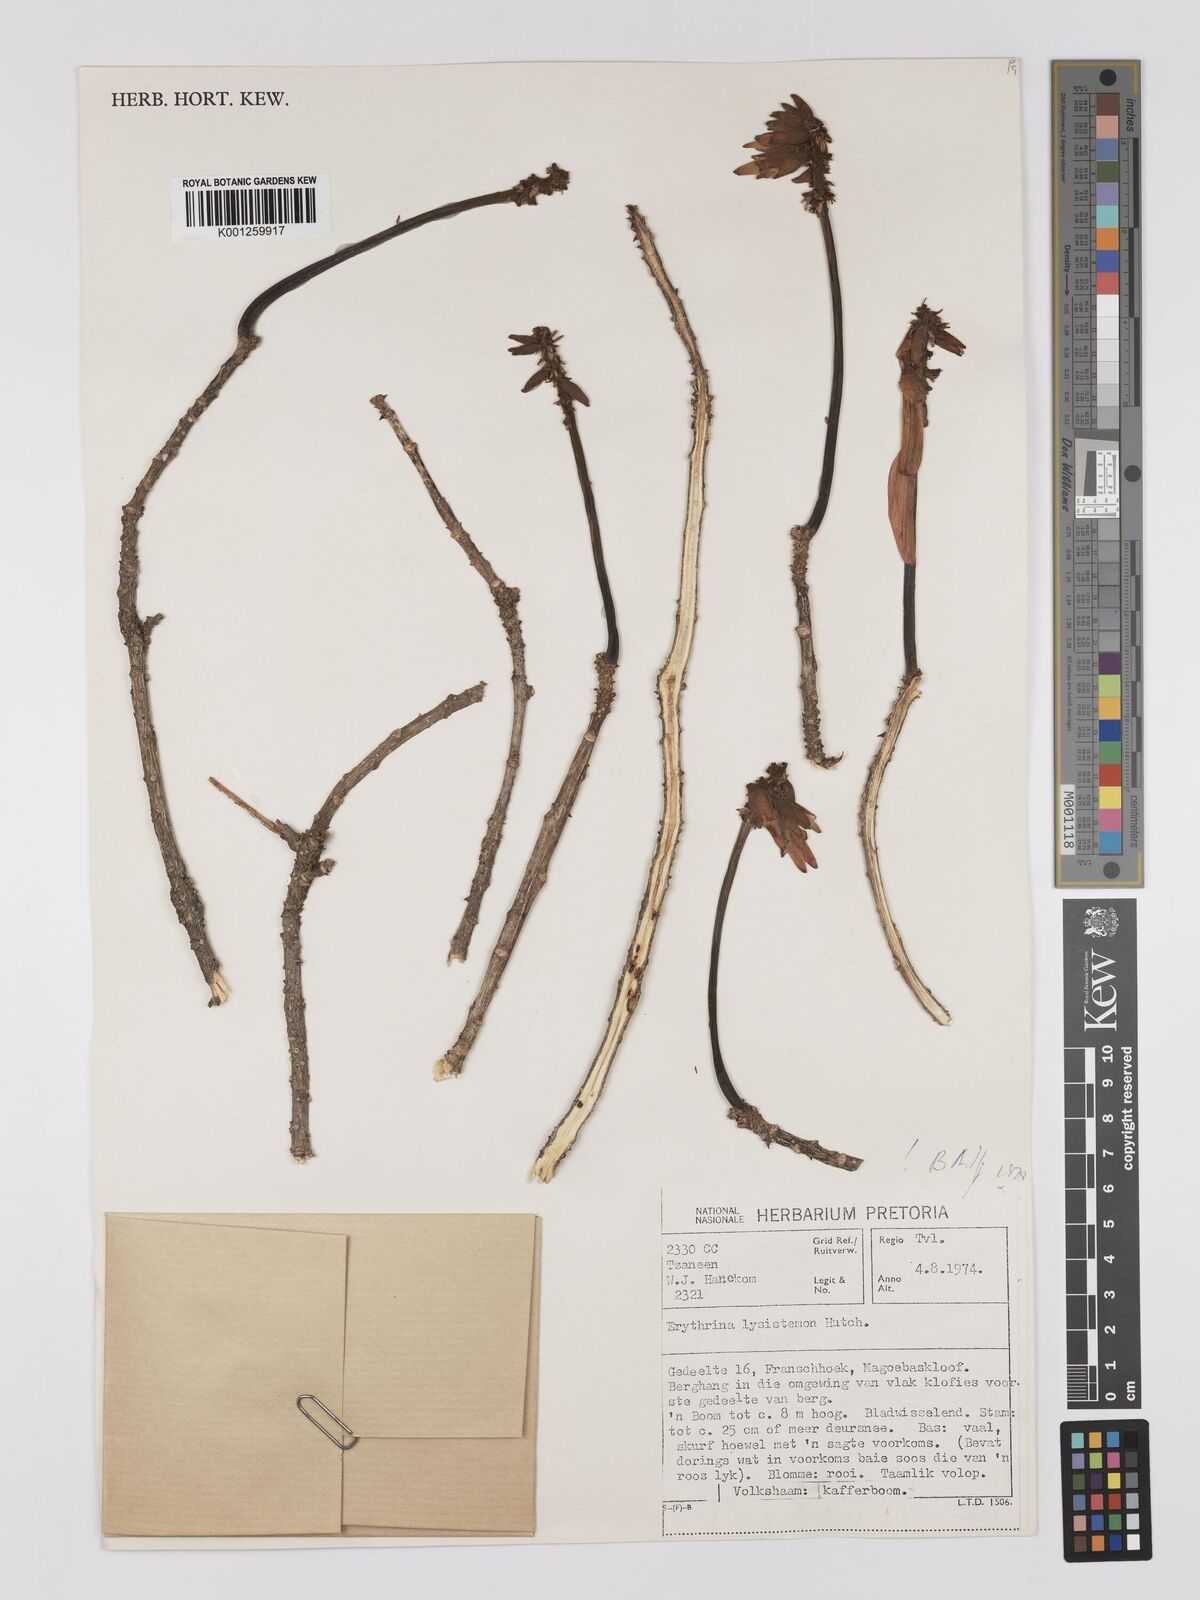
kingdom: Plantae
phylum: Tracheophyta
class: Magnoliopsida
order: Fabales
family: Fabaceae
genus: Erythrina
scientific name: Erythrina lysistemon
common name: Common coral tree
